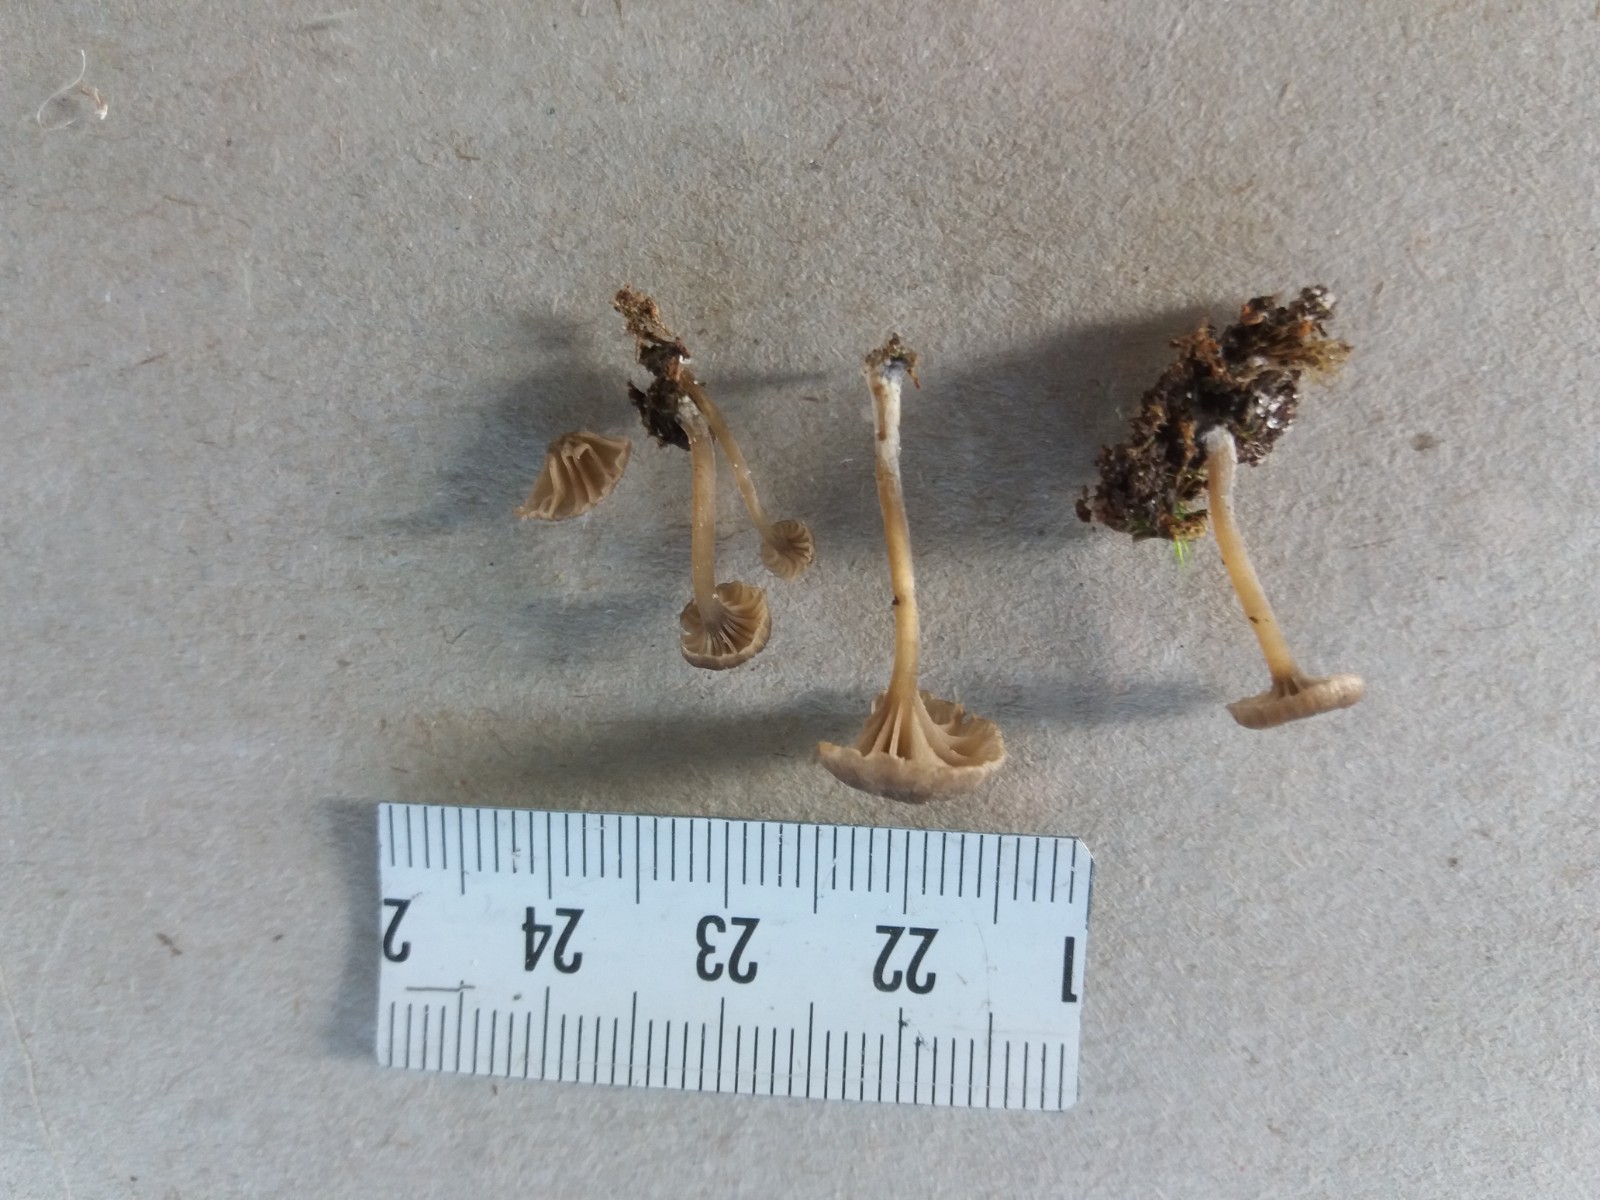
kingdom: Fungi
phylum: Basidiomycota
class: Agaricomycetes
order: Agaricales
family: Entolomataceae
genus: Entoloma
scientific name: Entoloma rhodocylix
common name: fjernbladet rødblad
